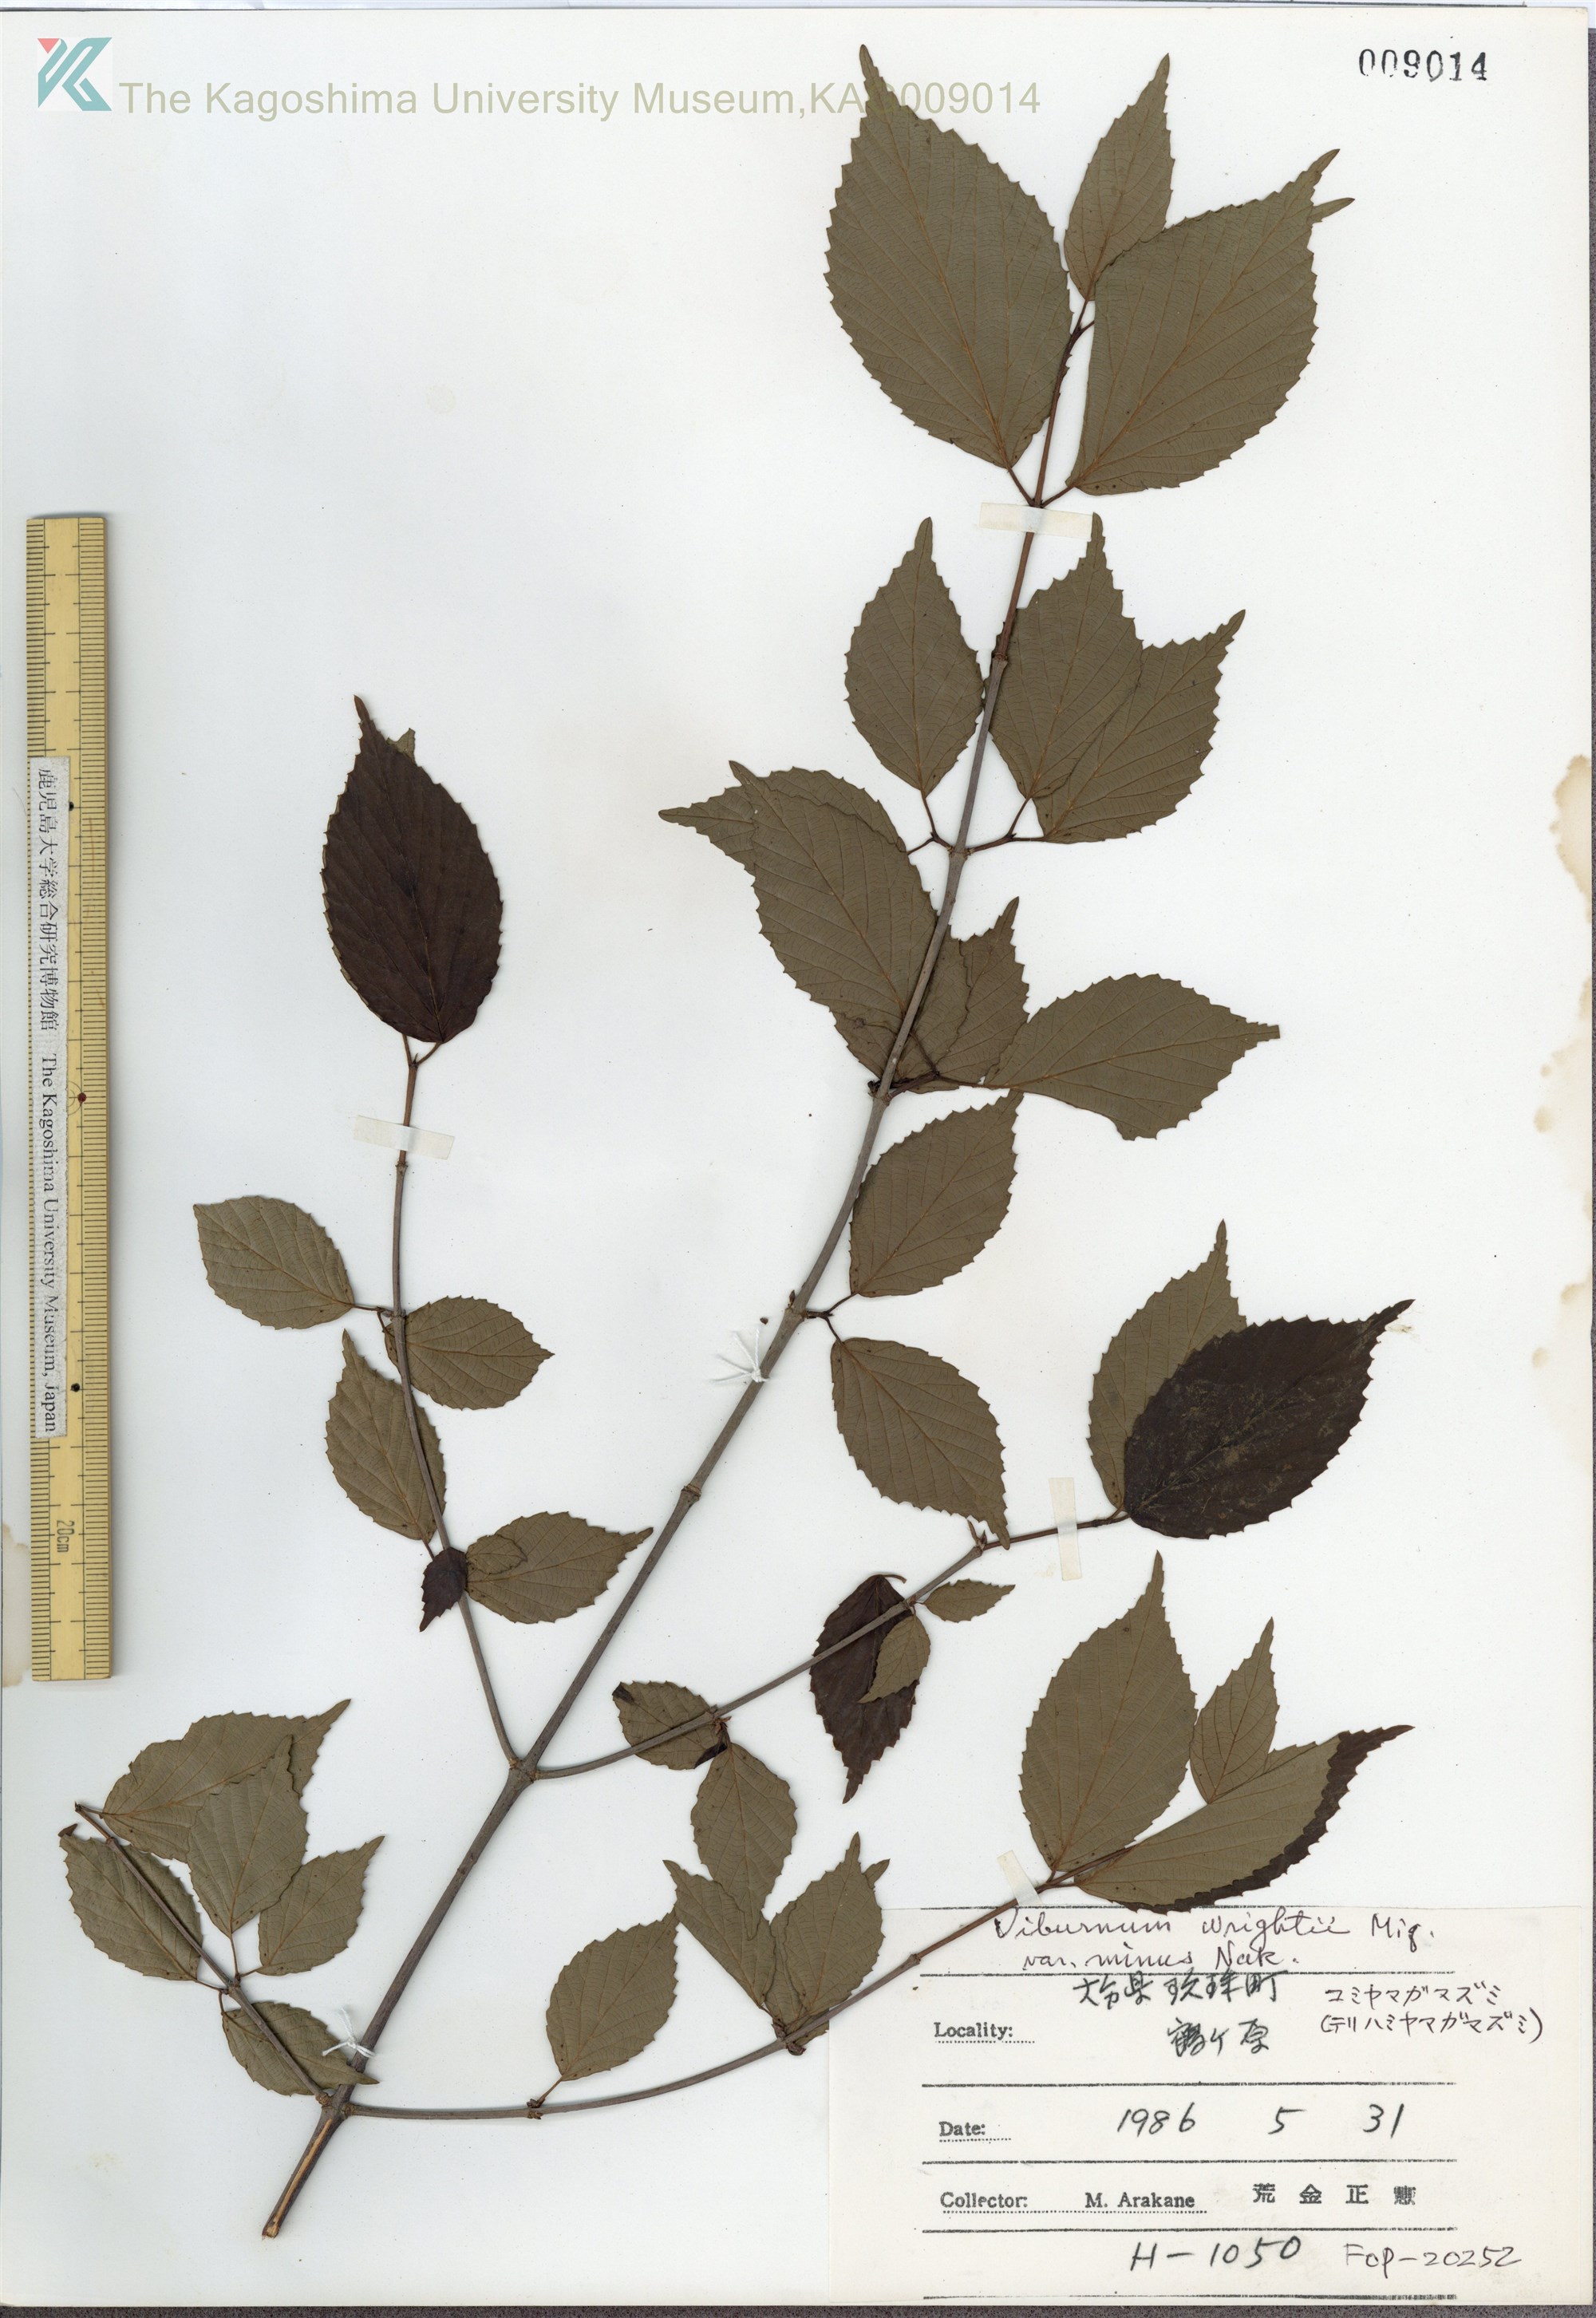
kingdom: Plantae
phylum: Tracheophyta
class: Magnoliopsida
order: Dipsacales
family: Viburnaceae
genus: Viburnum
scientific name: Viburnum wrightii
